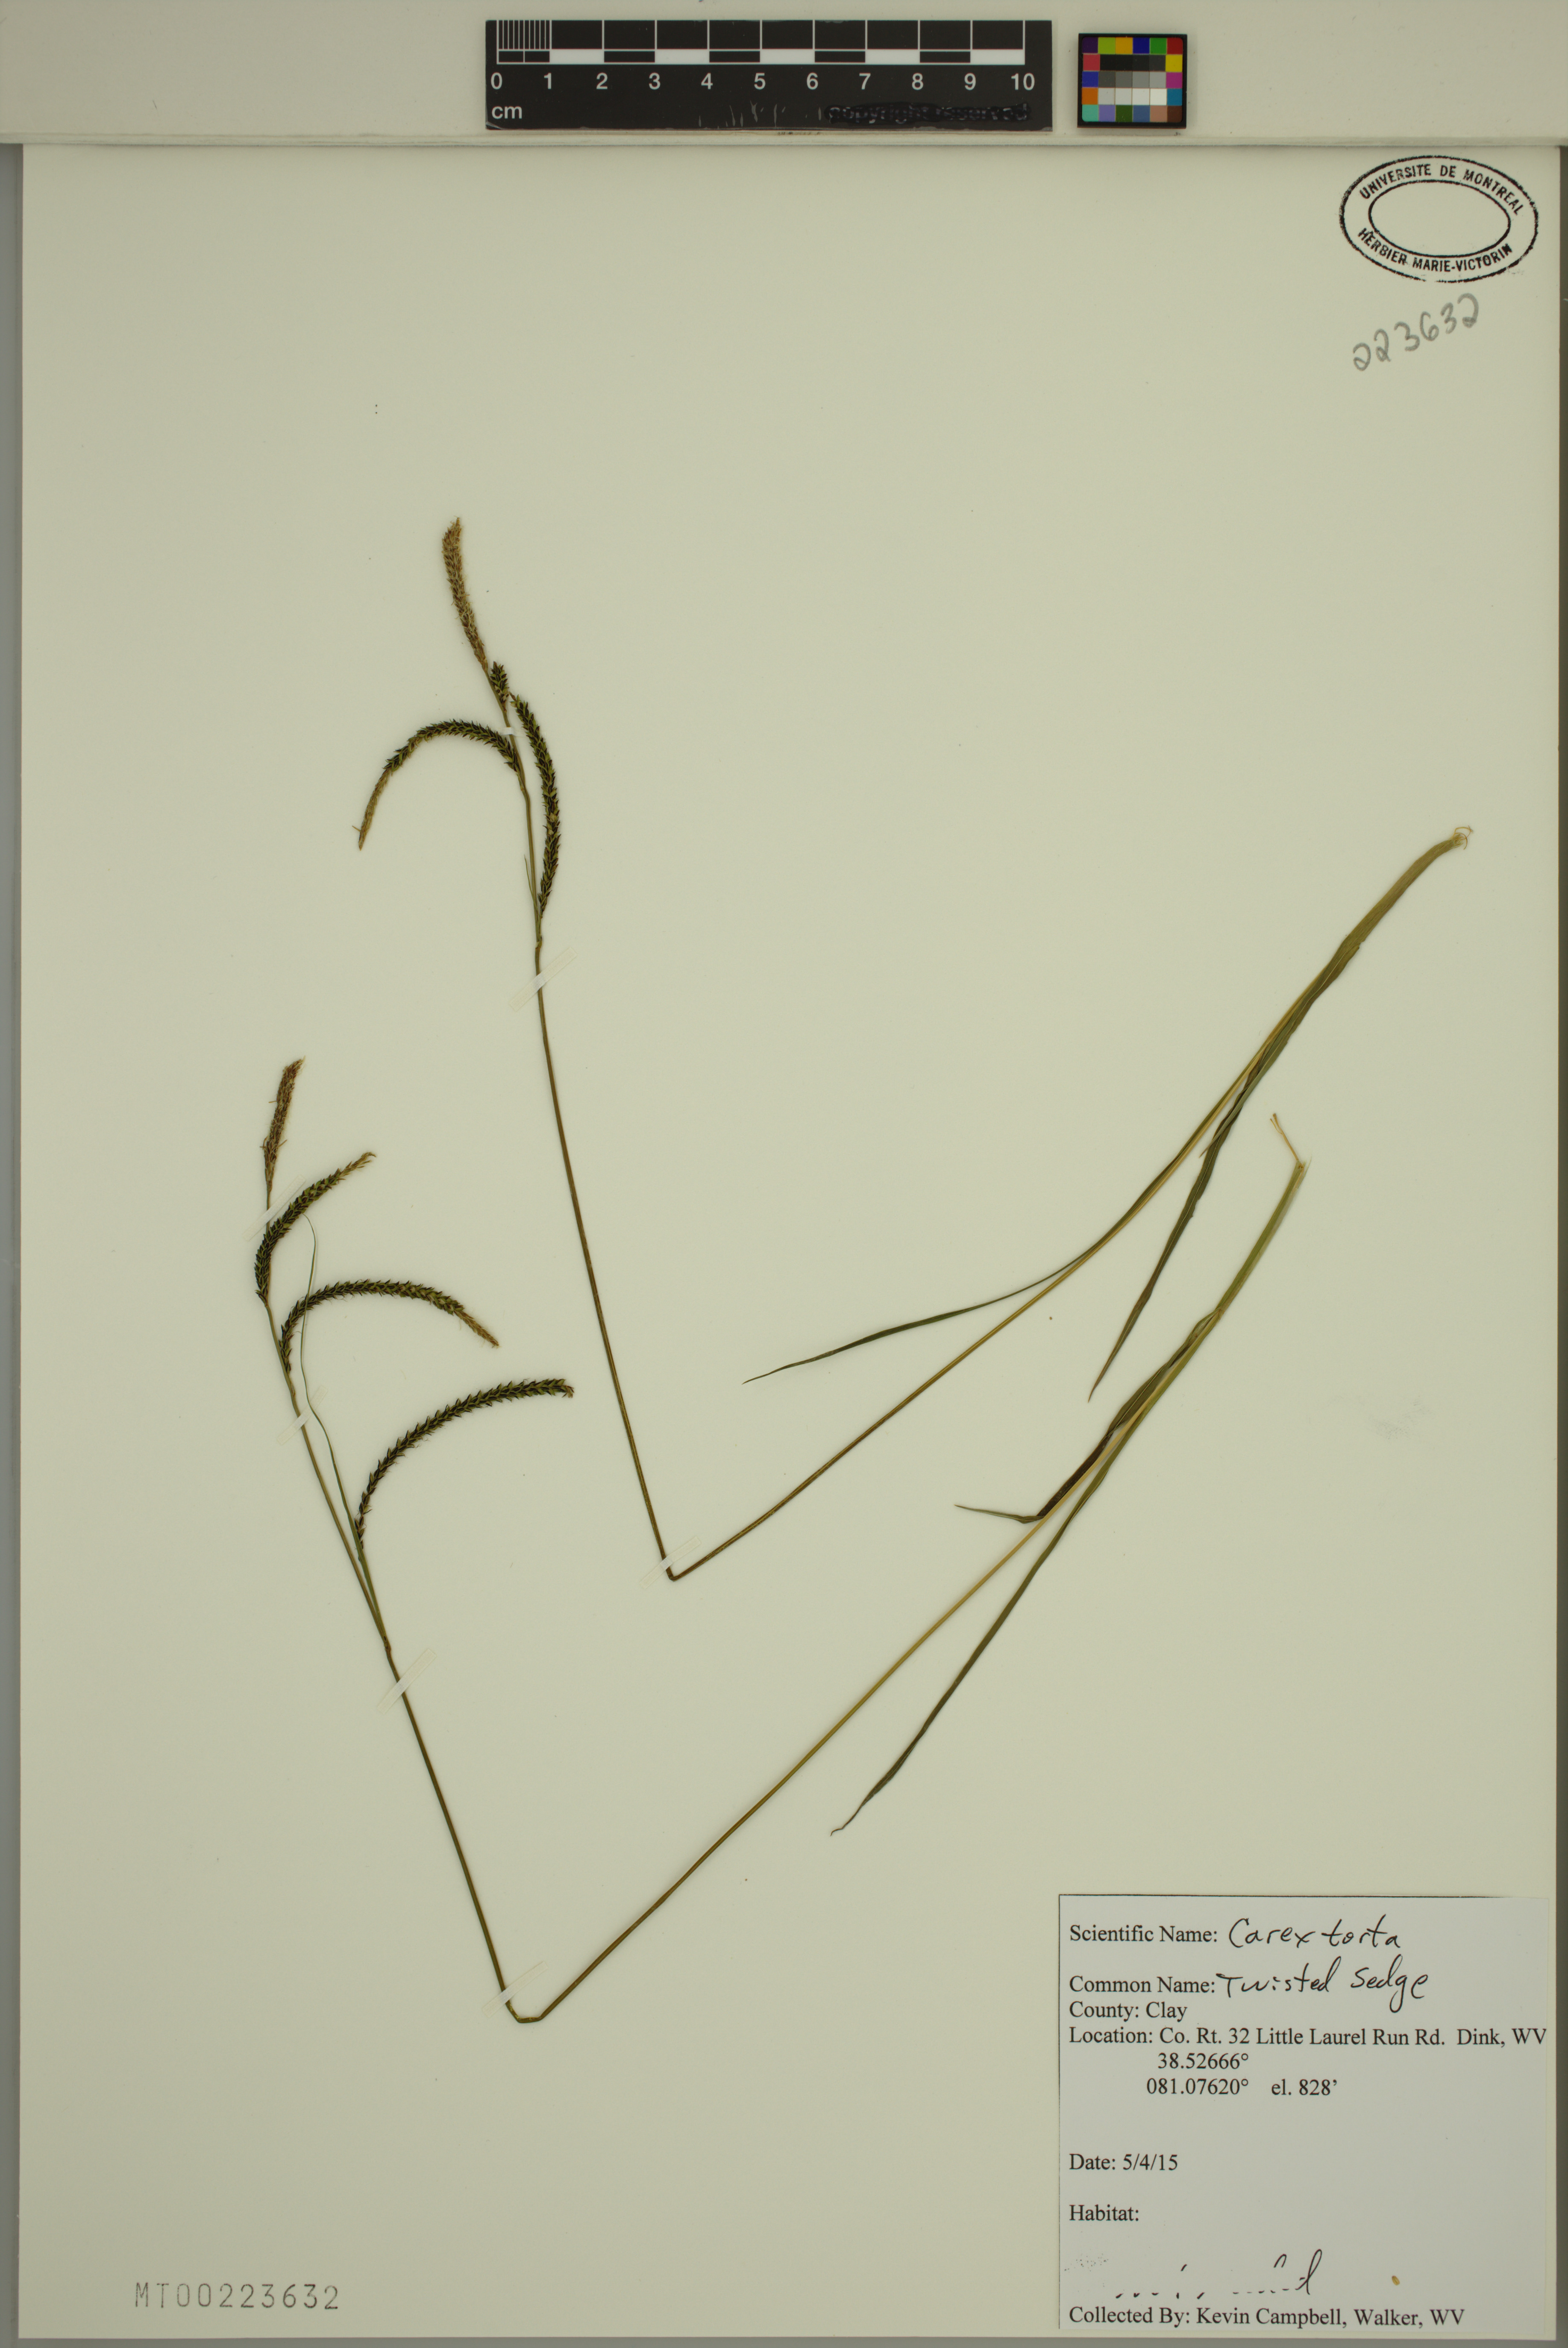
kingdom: Plantae
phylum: Tracheophyta
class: Liliopsida
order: Poales
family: Cyperaceae
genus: Carex
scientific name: Carex torta
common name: Twisted sedge
